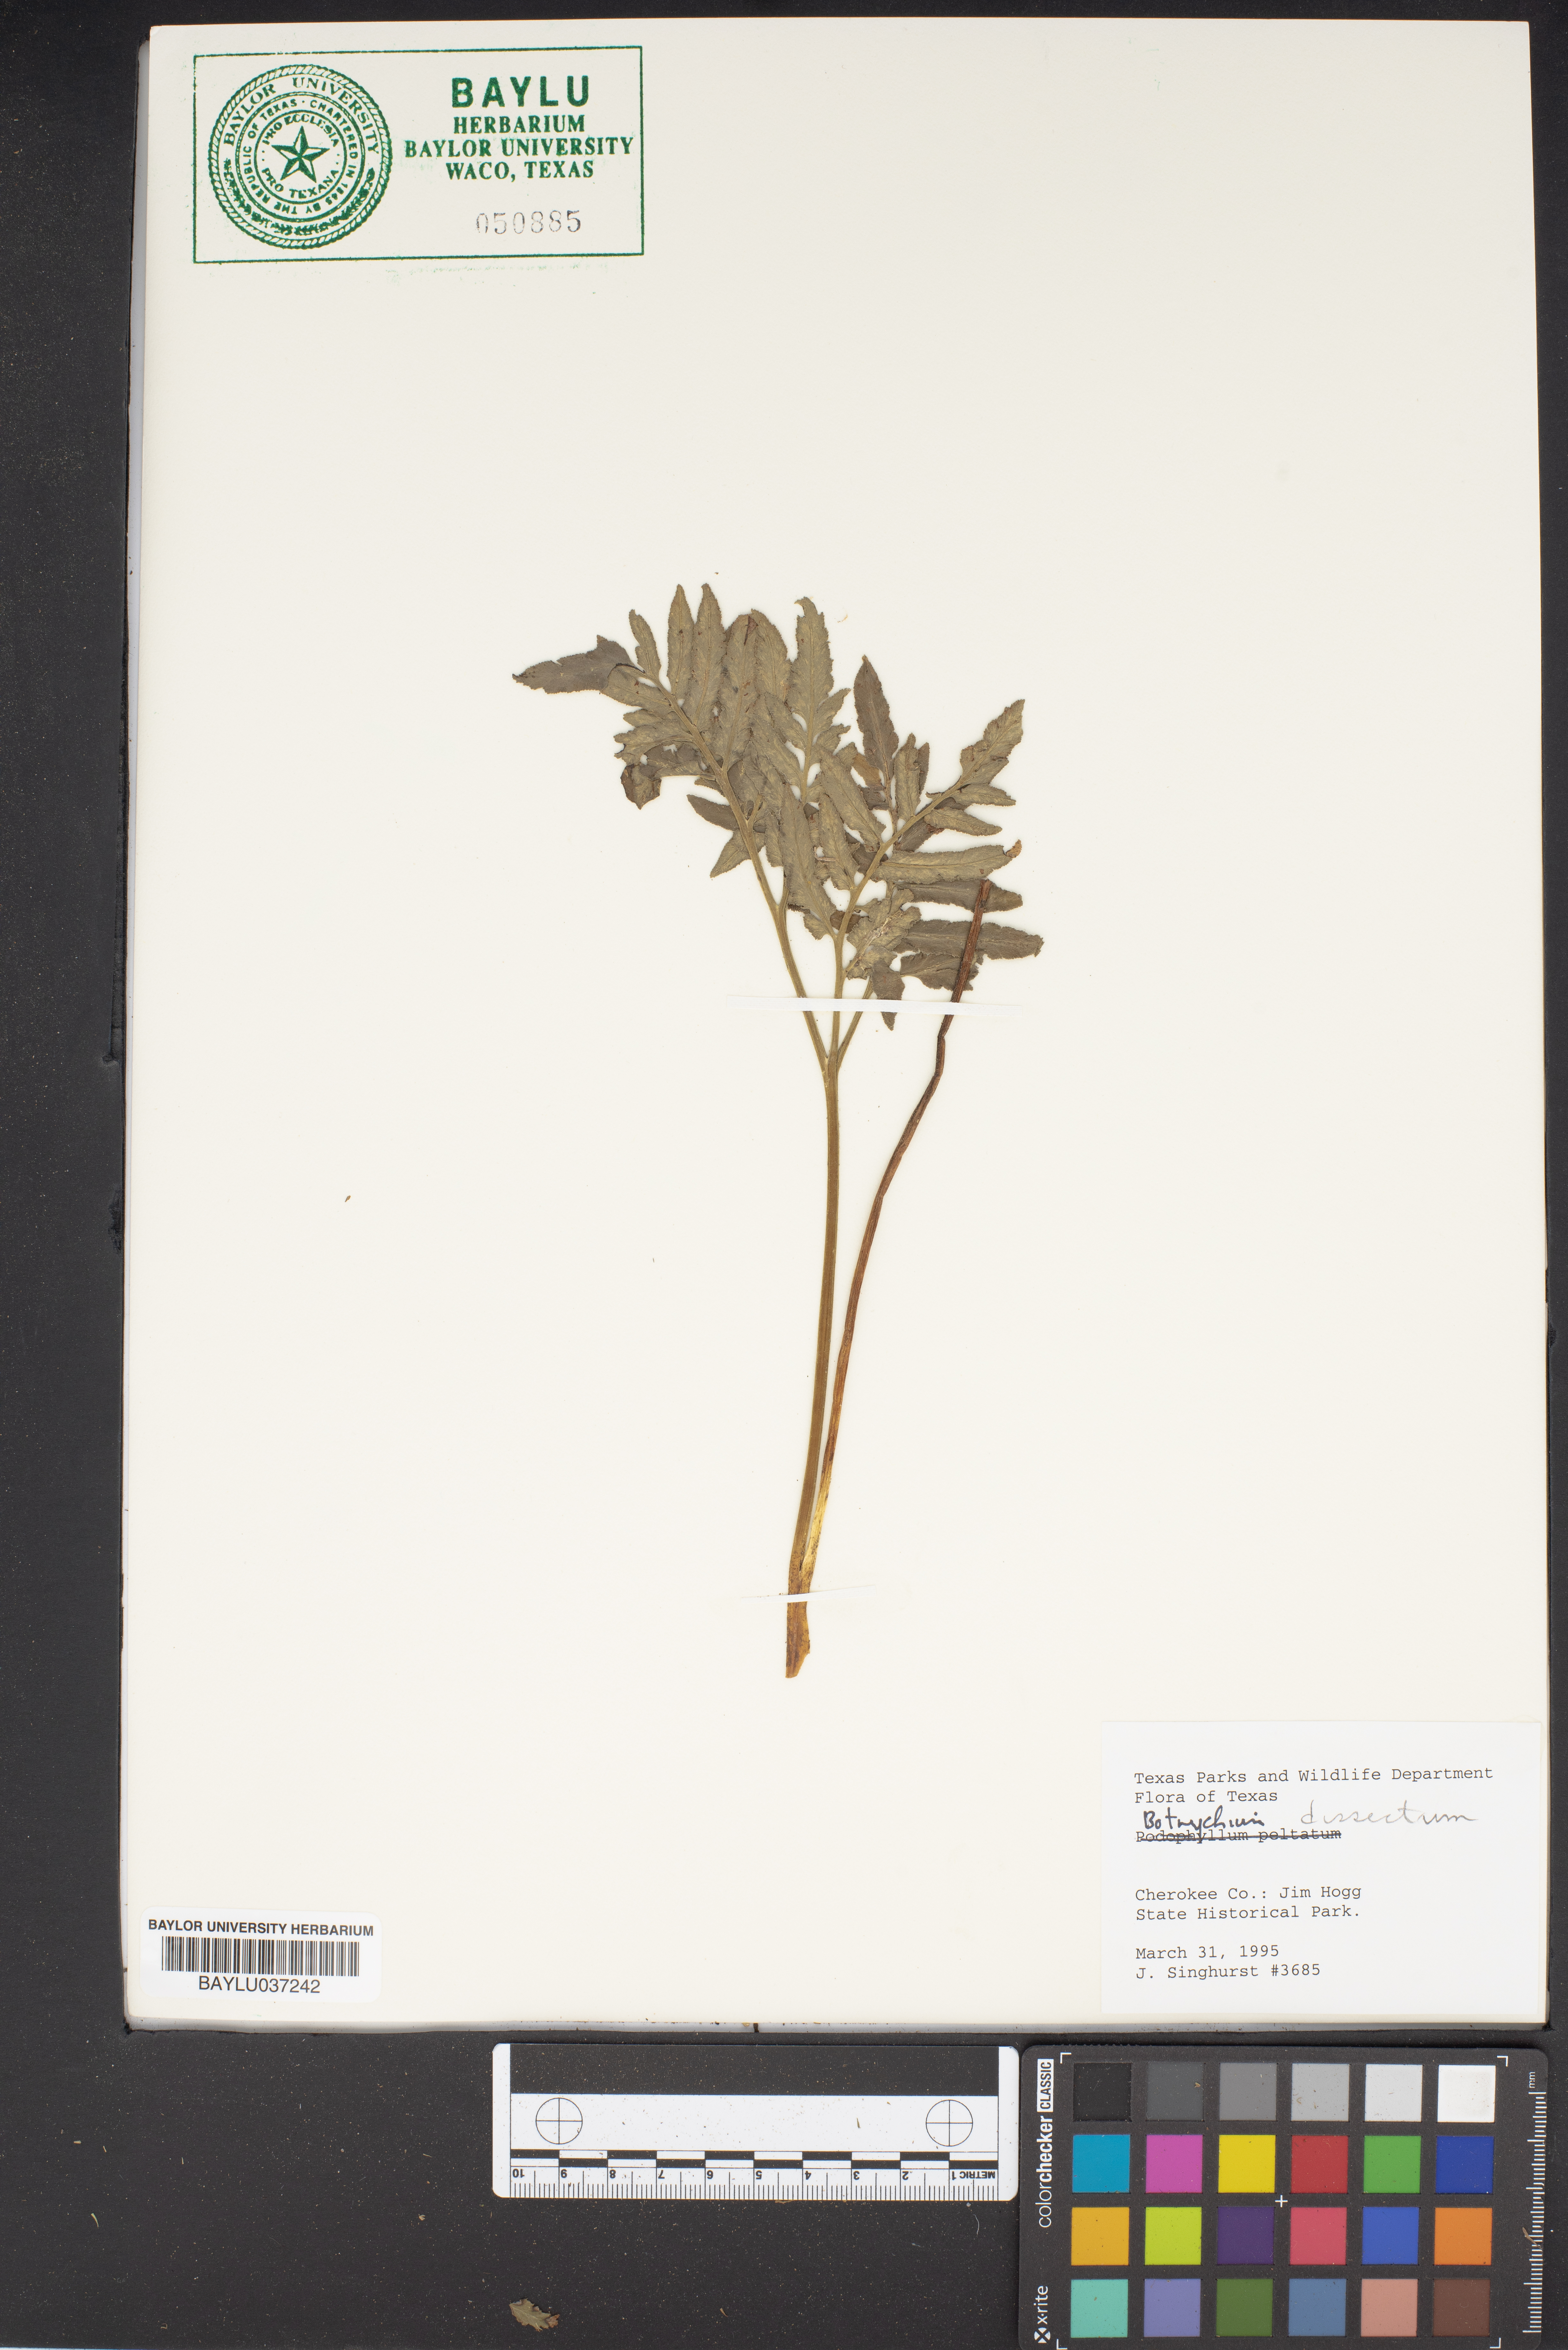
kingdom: Plantae
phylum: Tracheophyta
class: Polypodiopsida
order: Ophioglossales
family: Ophioglossaceae
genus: Sceptridium
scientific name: Sceptridium dissectum
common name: Cut-leaved grapefern
